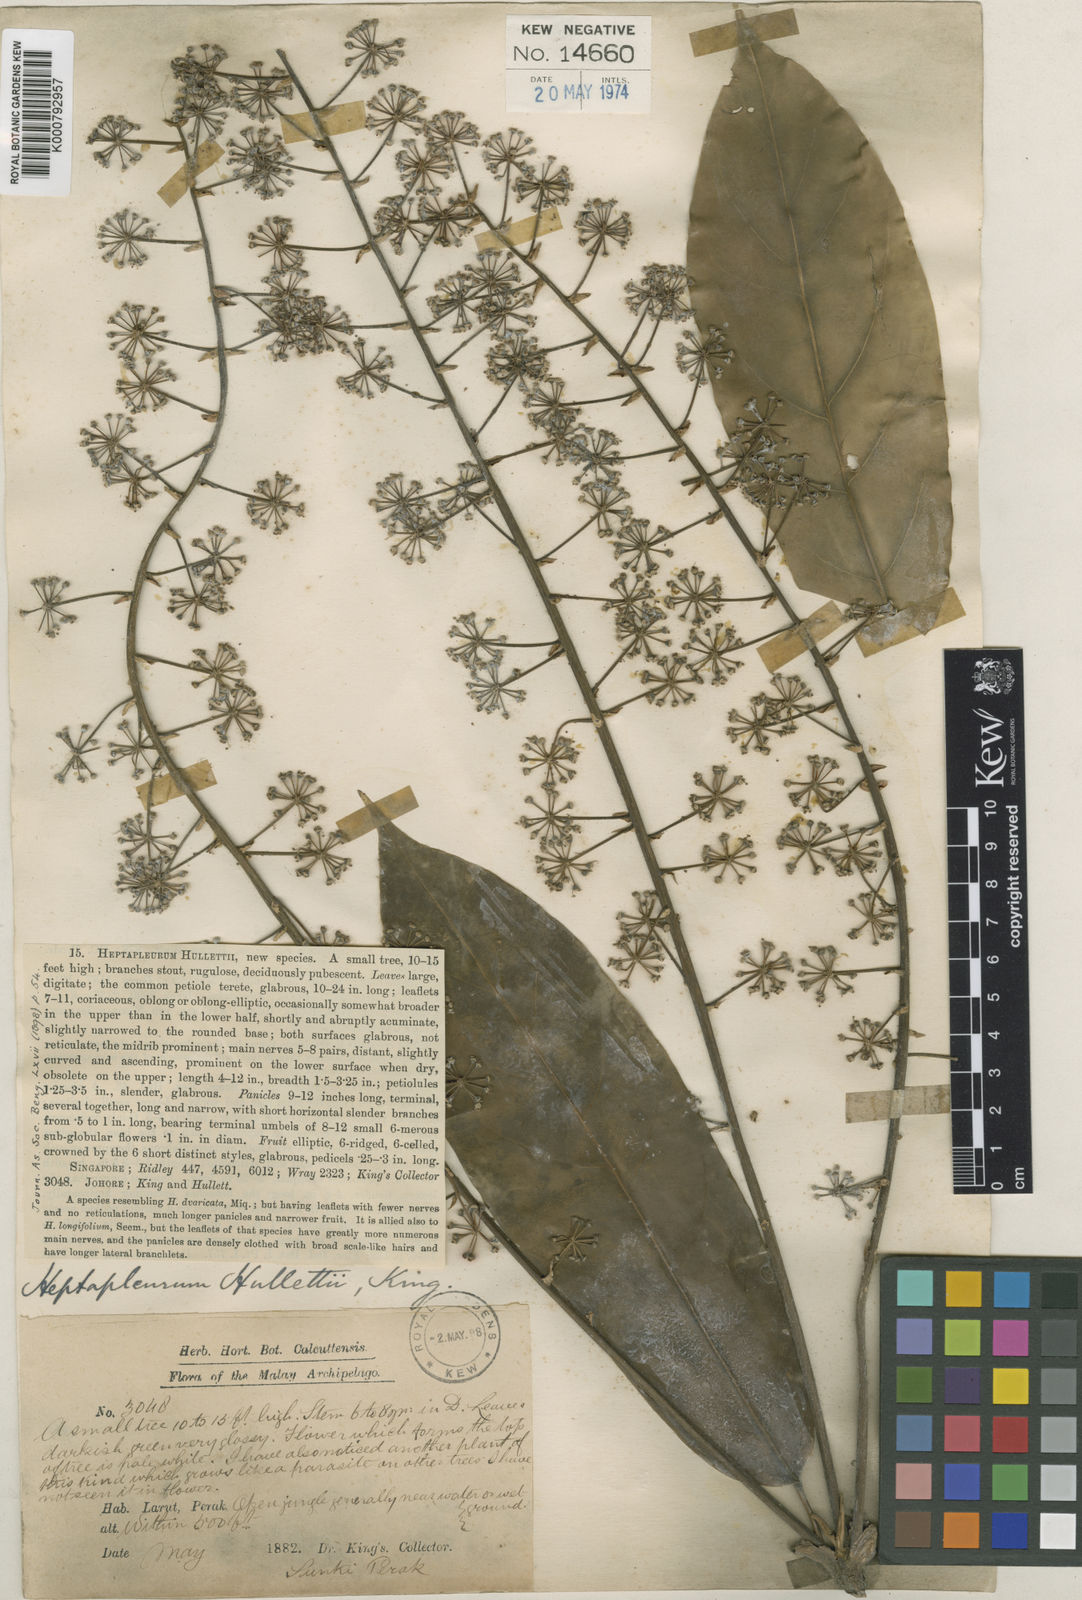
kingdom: Plantae
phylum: Tracheophyta
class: Magnoliopsida
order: Apiales
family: Araliaceae
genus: Heptapleurum
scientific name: Heptapleurum hullettii
